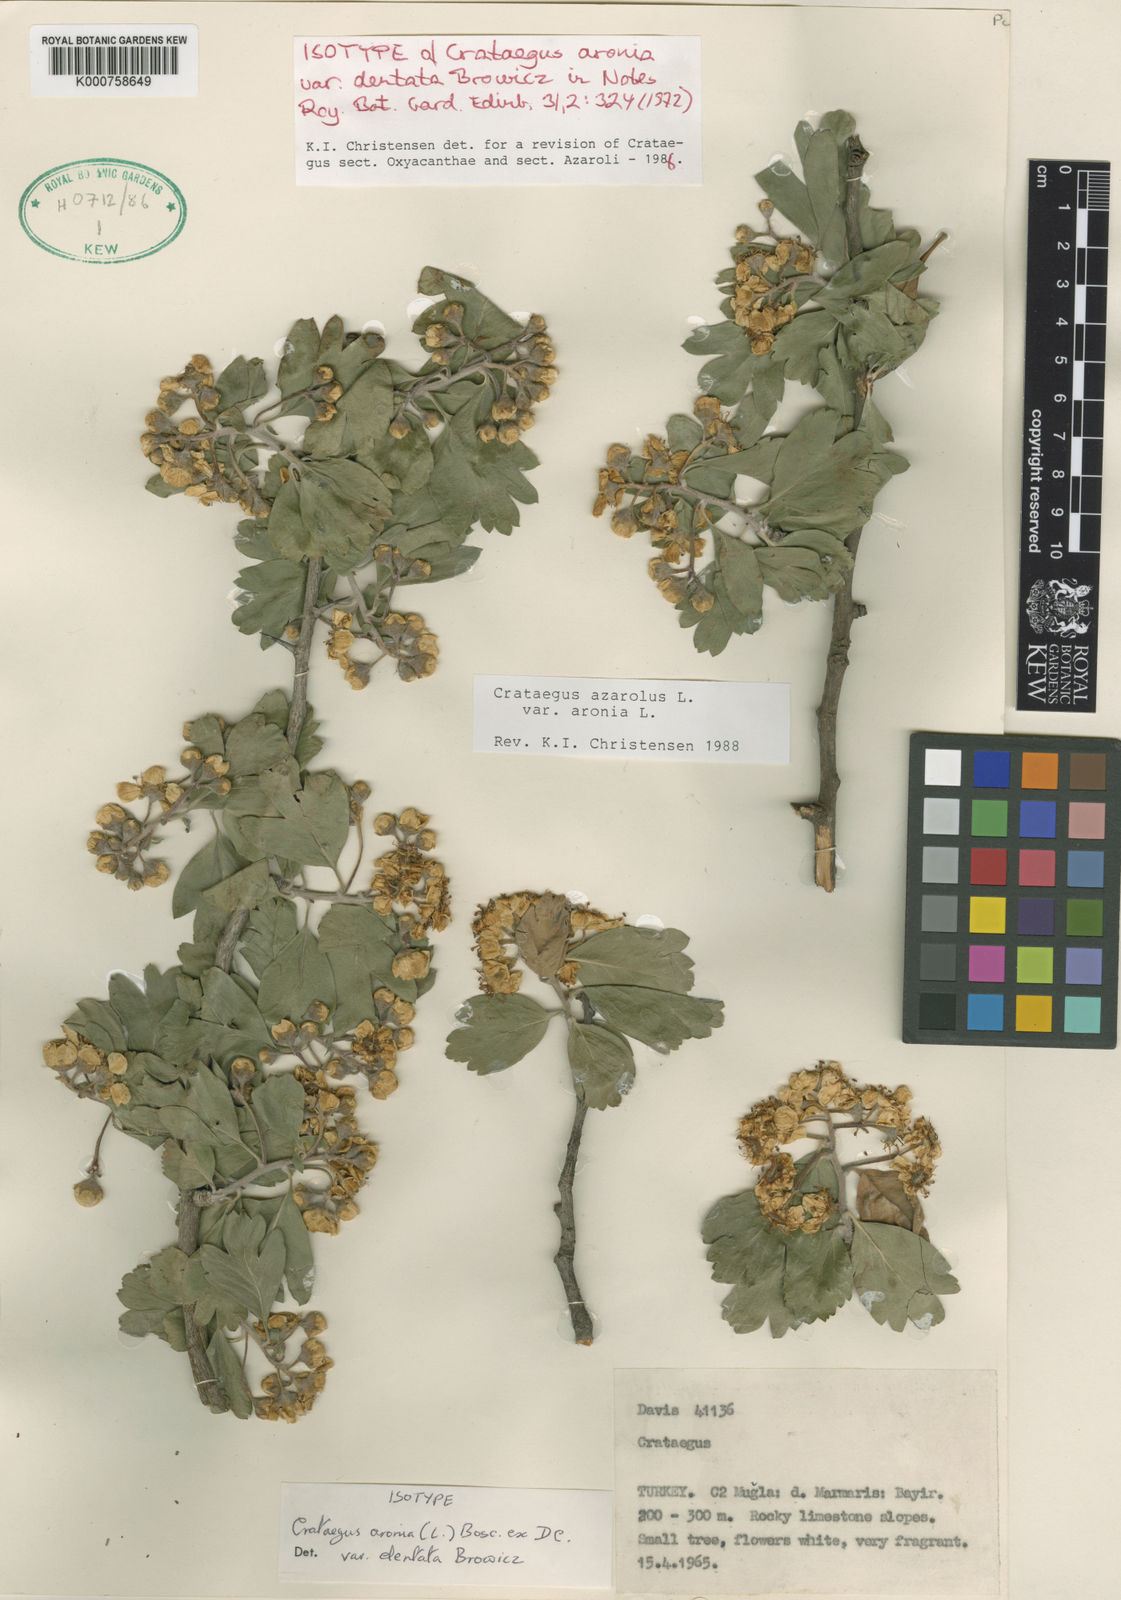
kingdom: Plantae
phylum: Tracheophyta
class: Magnoliopsida
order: Rosales
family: Rosaceae
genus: Crataegus
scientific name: Crataegus azarolus
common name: Azarole
